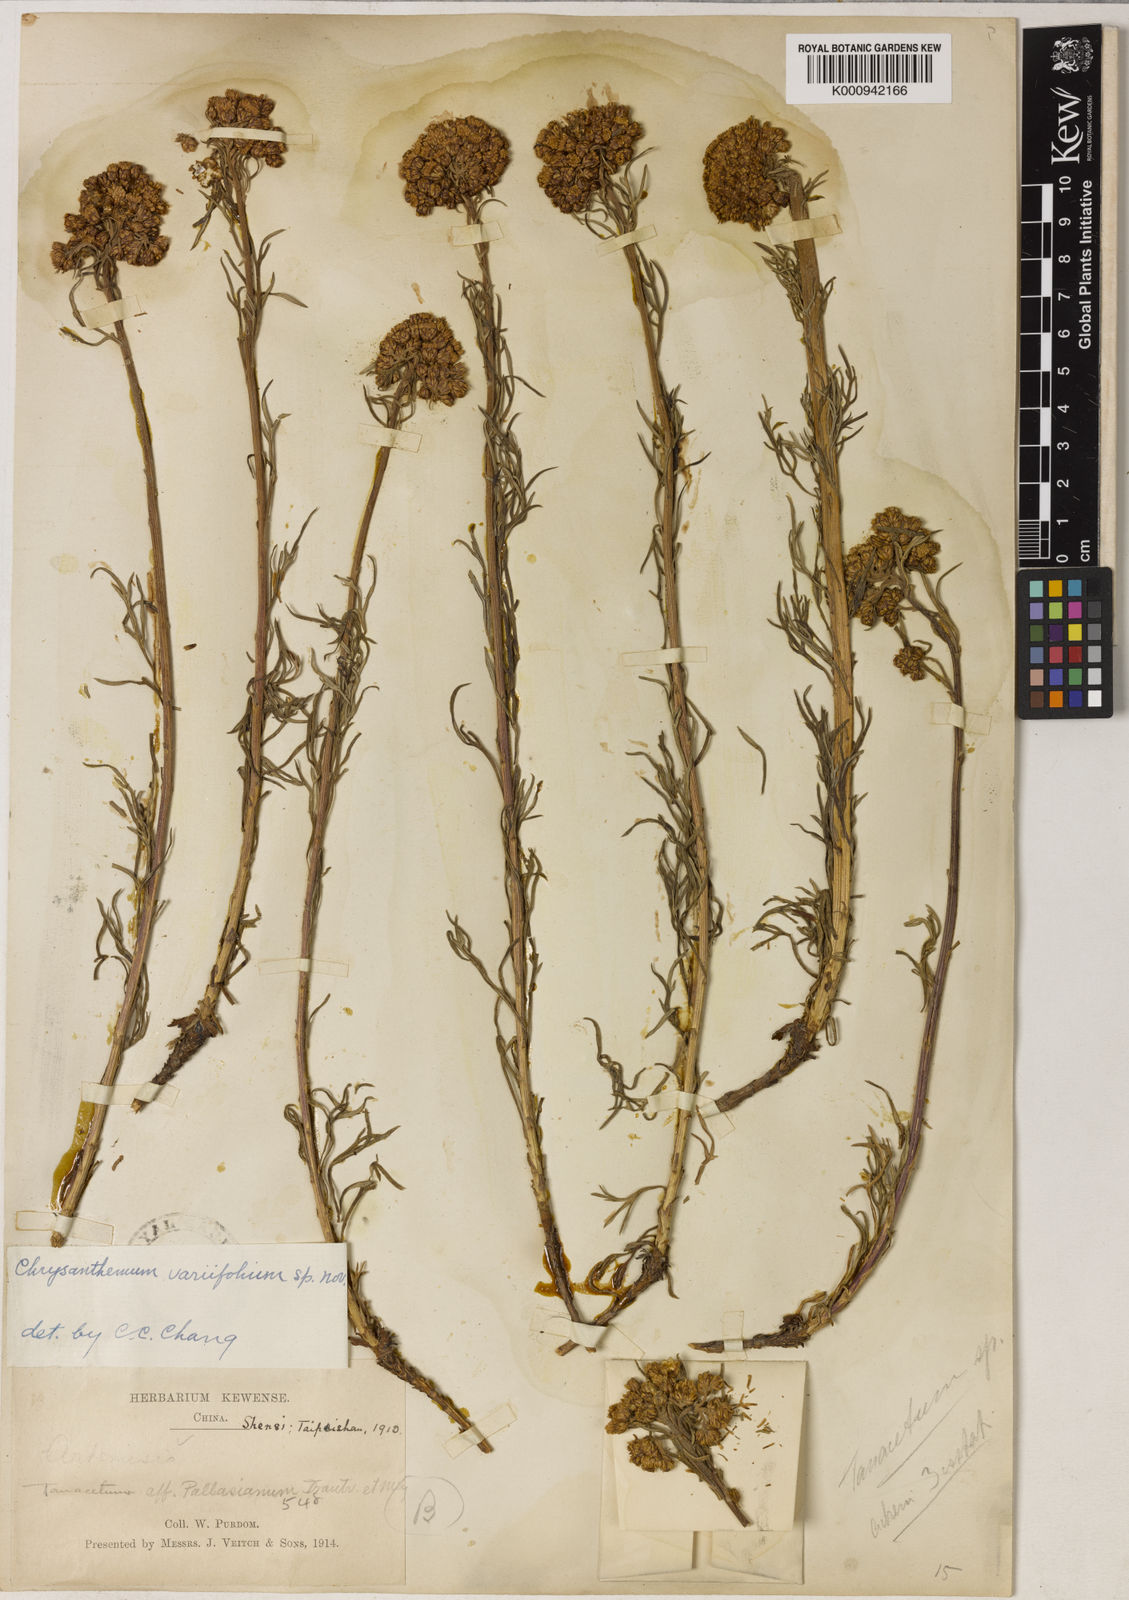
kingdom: Plantae
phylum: Tracheophyta
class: Magnoliopsida
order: Asterales
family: Asteraceae
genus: Phaeostigma
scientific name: Phaeostigma variifolium
